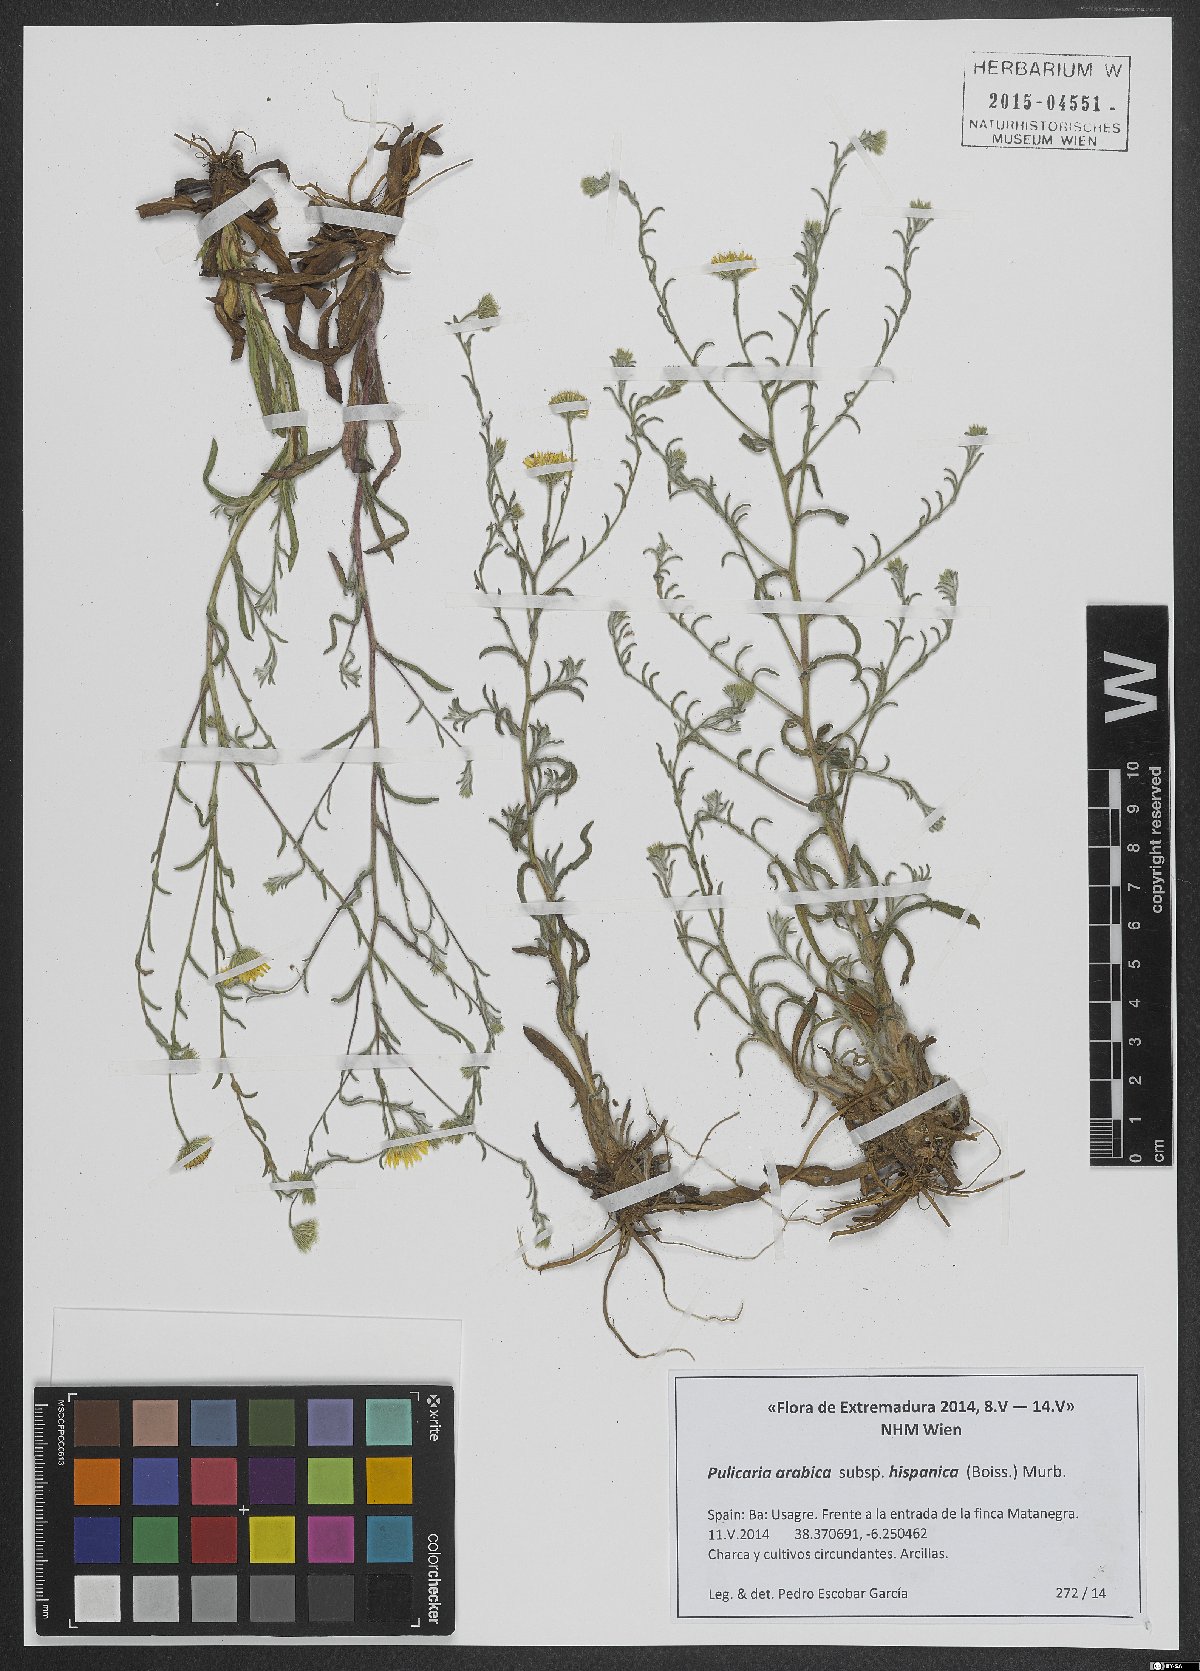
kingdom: Plantae
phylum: Tracheophyta
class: Magnoliopsida
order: Asterales
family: Asteraceae
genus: Pulicaria
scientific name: Pulicaria arabica
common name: Ladies' false fleabane
